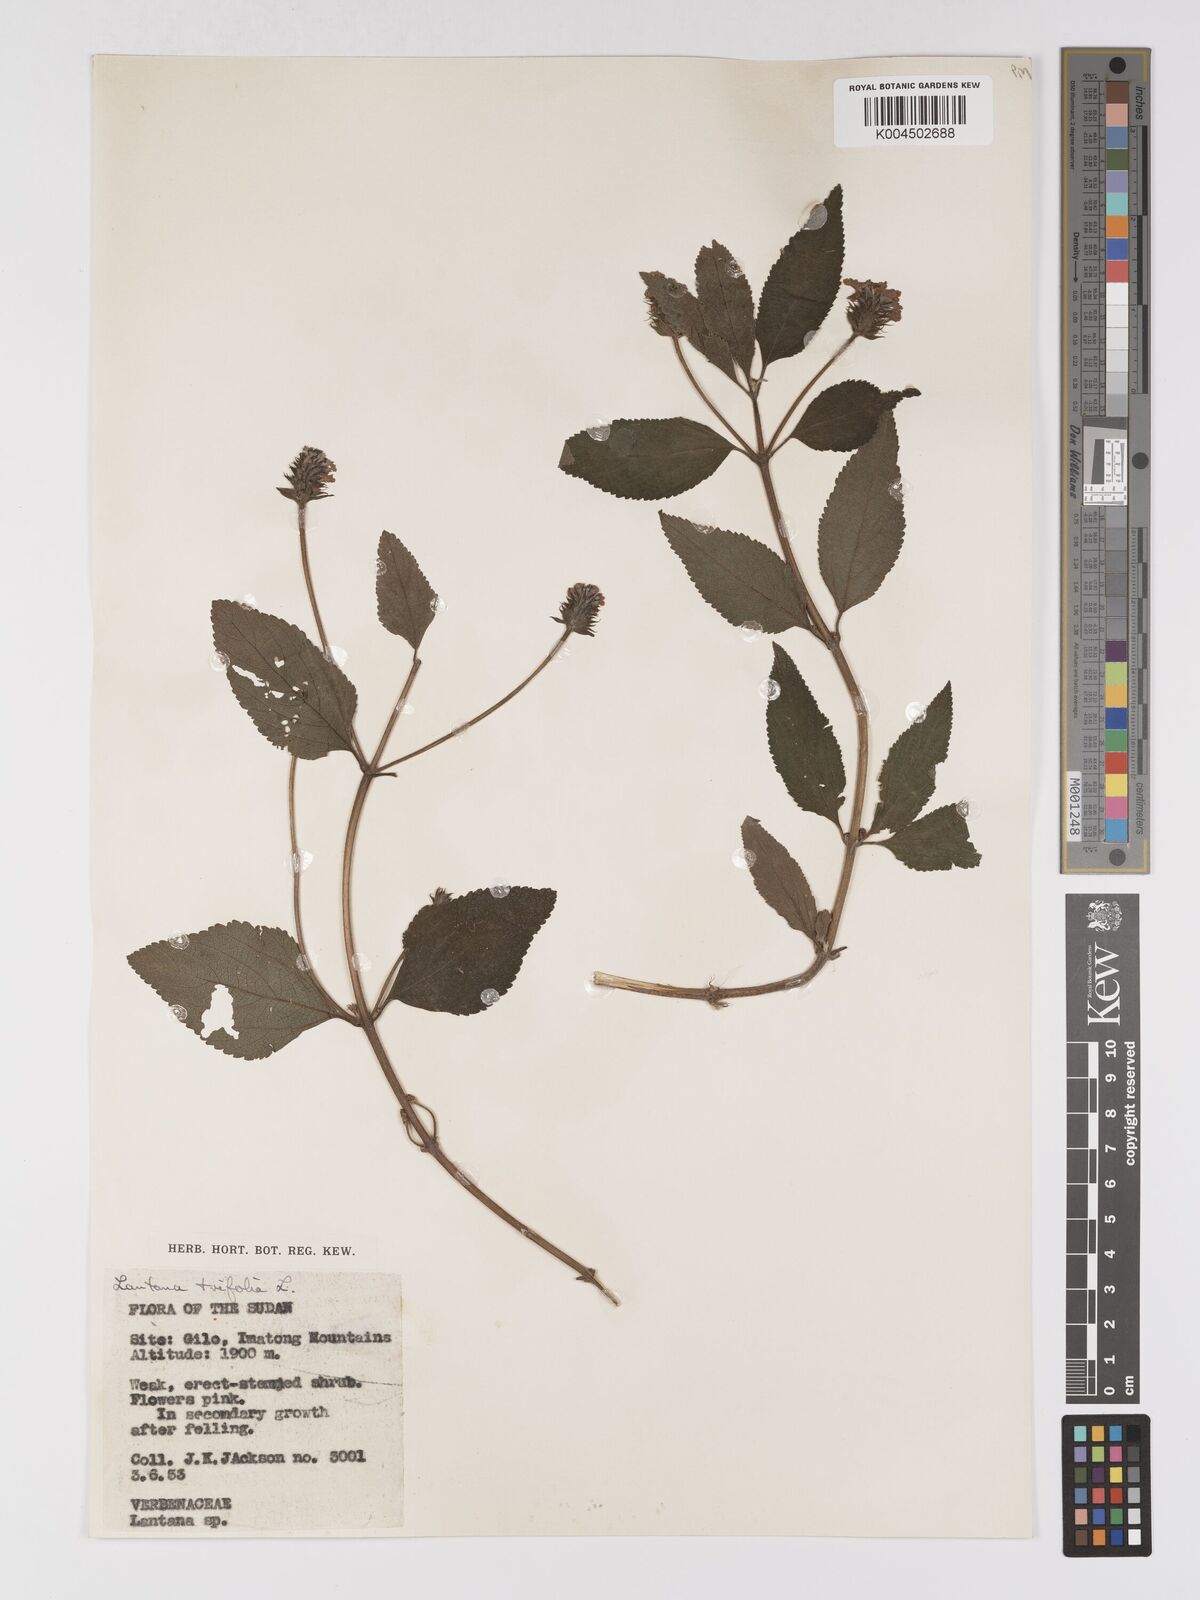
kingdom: Plantae
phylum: Tracheophyta
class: Magnoliopsida
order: Lamiales
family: Verbenaceae
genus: Lantana
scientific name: Lantana trifolia
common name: Sweet-sage
